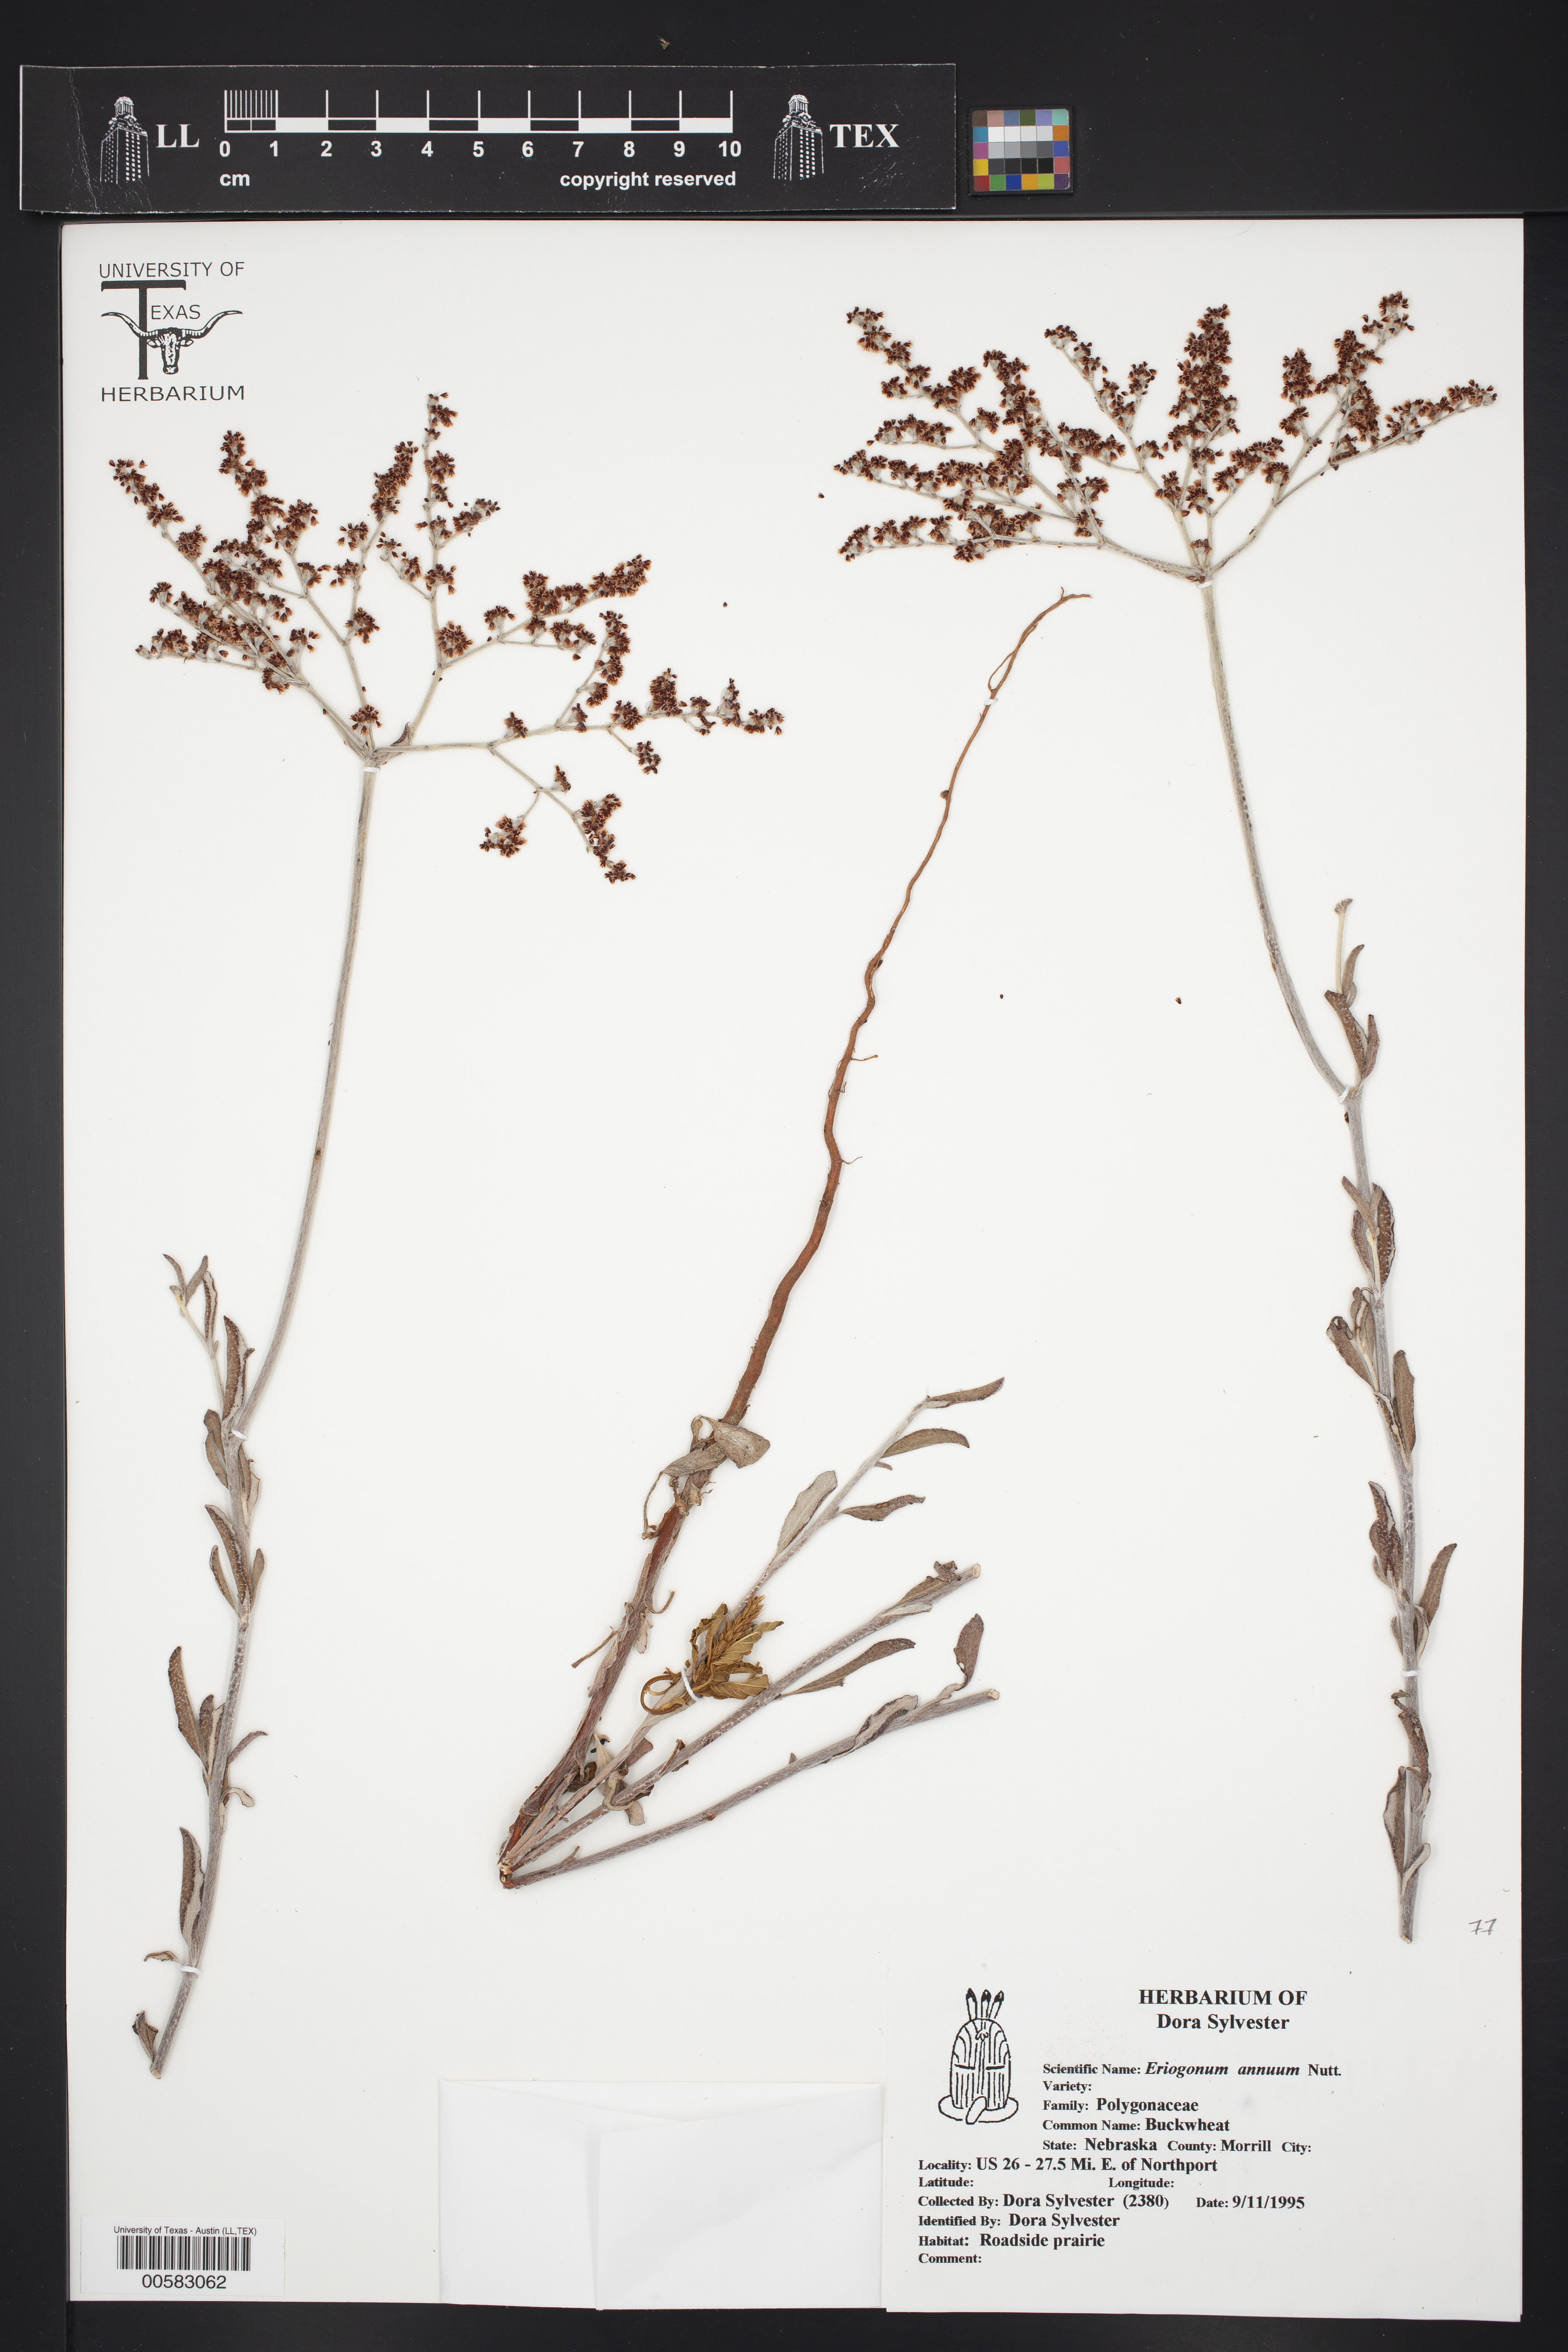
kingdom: Plantae
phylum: Tracheophyta
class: Magnoliopsida
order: Caryophyllales
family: Polygonaceae
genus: Eriogonum
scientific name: Eriogonum annuum
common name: Annual wild buckwheat
